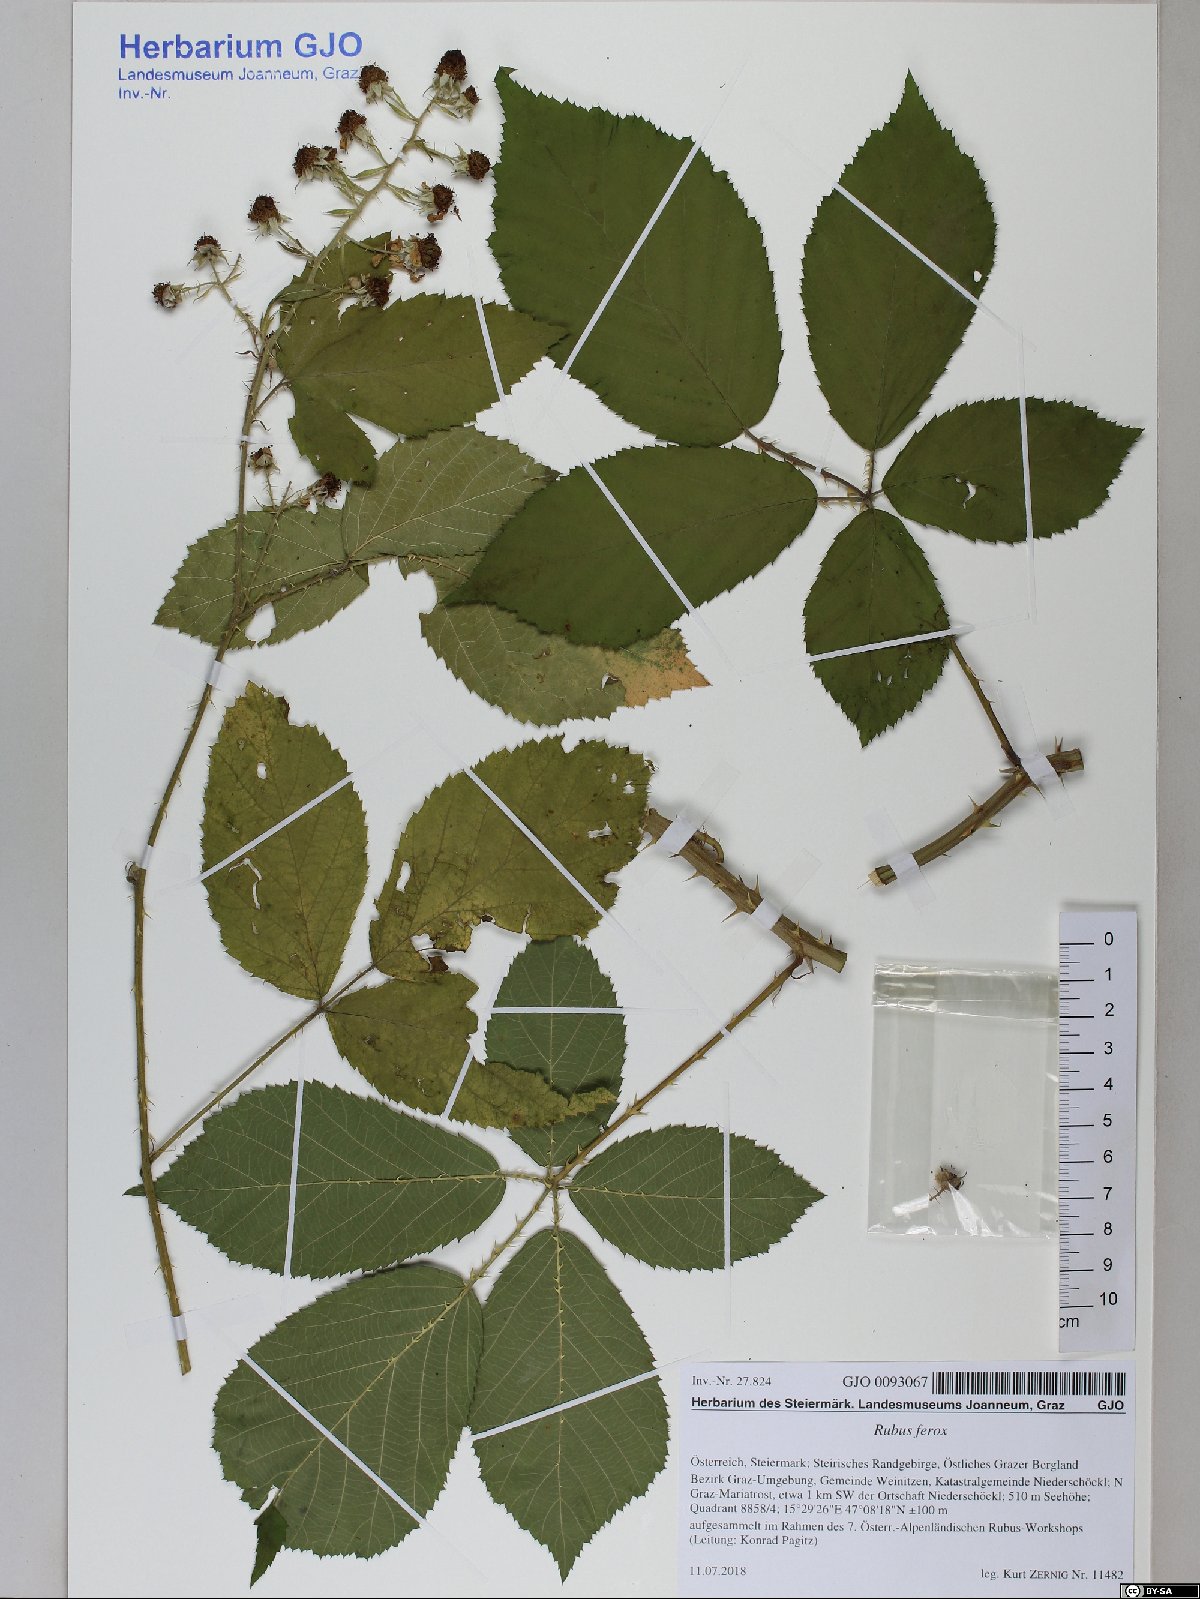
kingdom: Plantae
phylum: Tracheophyta
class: Magnoliopsida
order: Rosales
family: Rosaceae
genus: Rubus
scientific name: Rubus ferox
